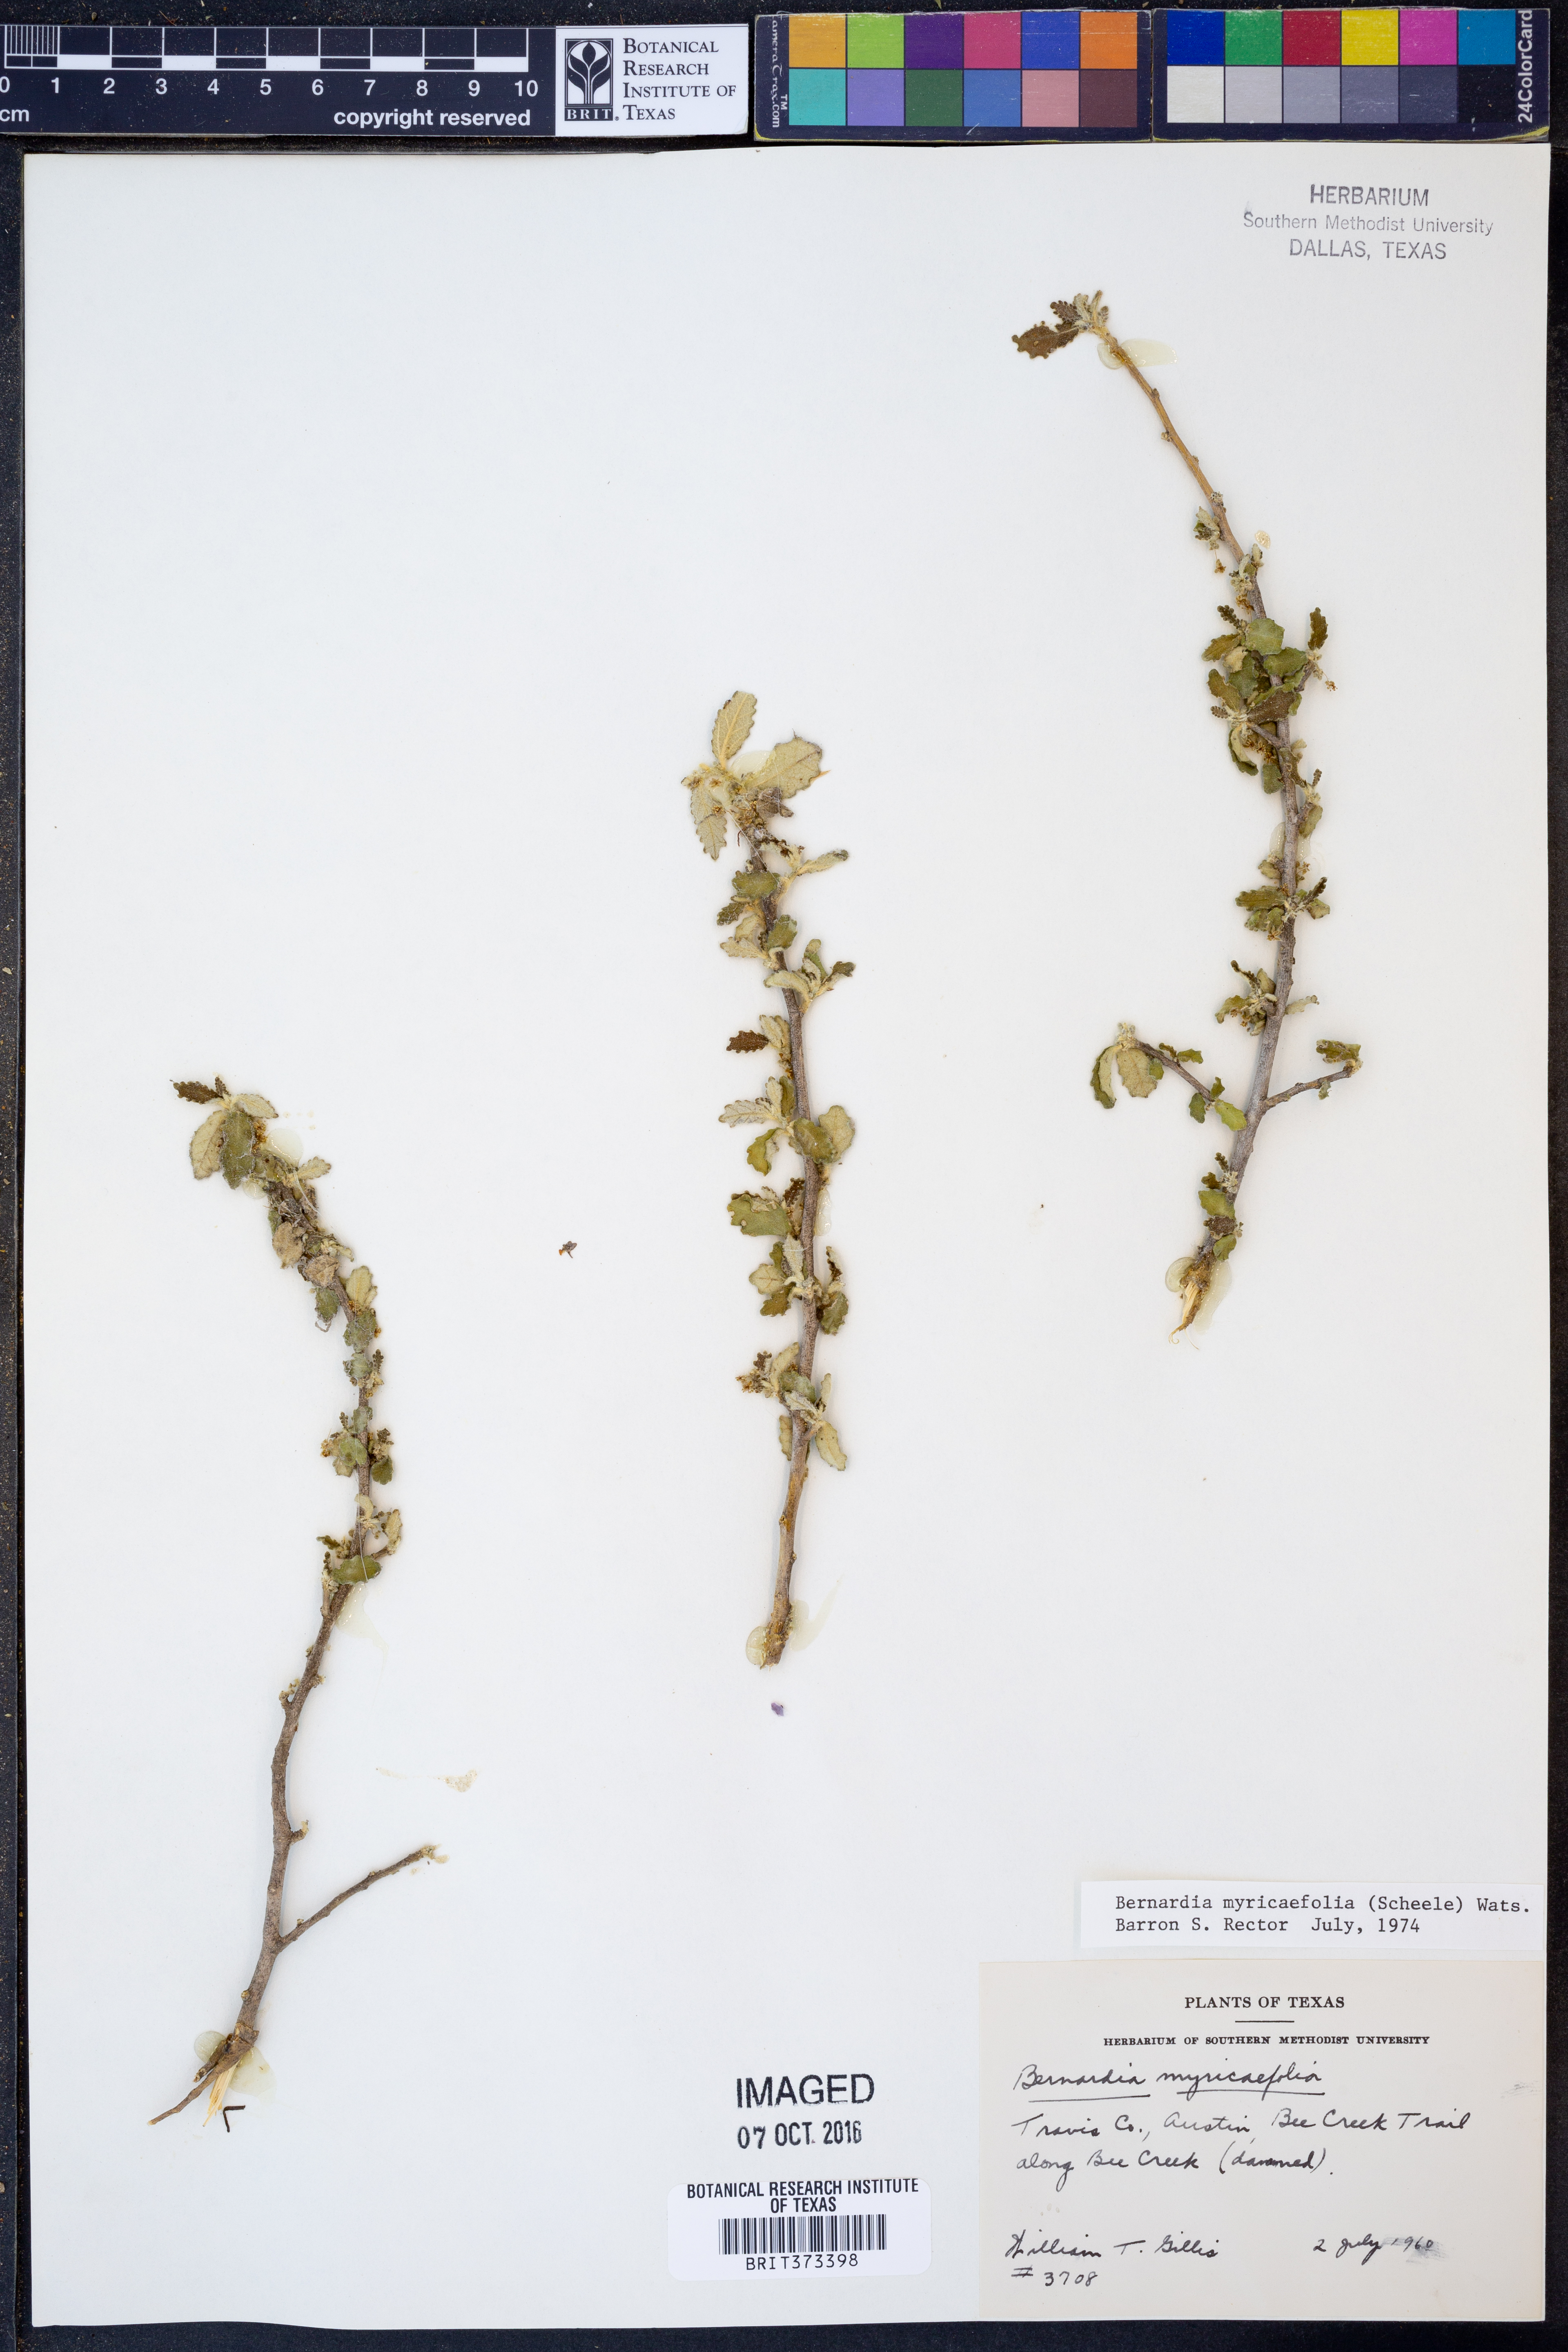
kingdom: Plantae
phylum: Tracheophyta
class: Magnoliopsida
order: Malpighiales
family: Euphorbiaceae
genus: Bernardia
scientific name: Bernardia myricifolia
